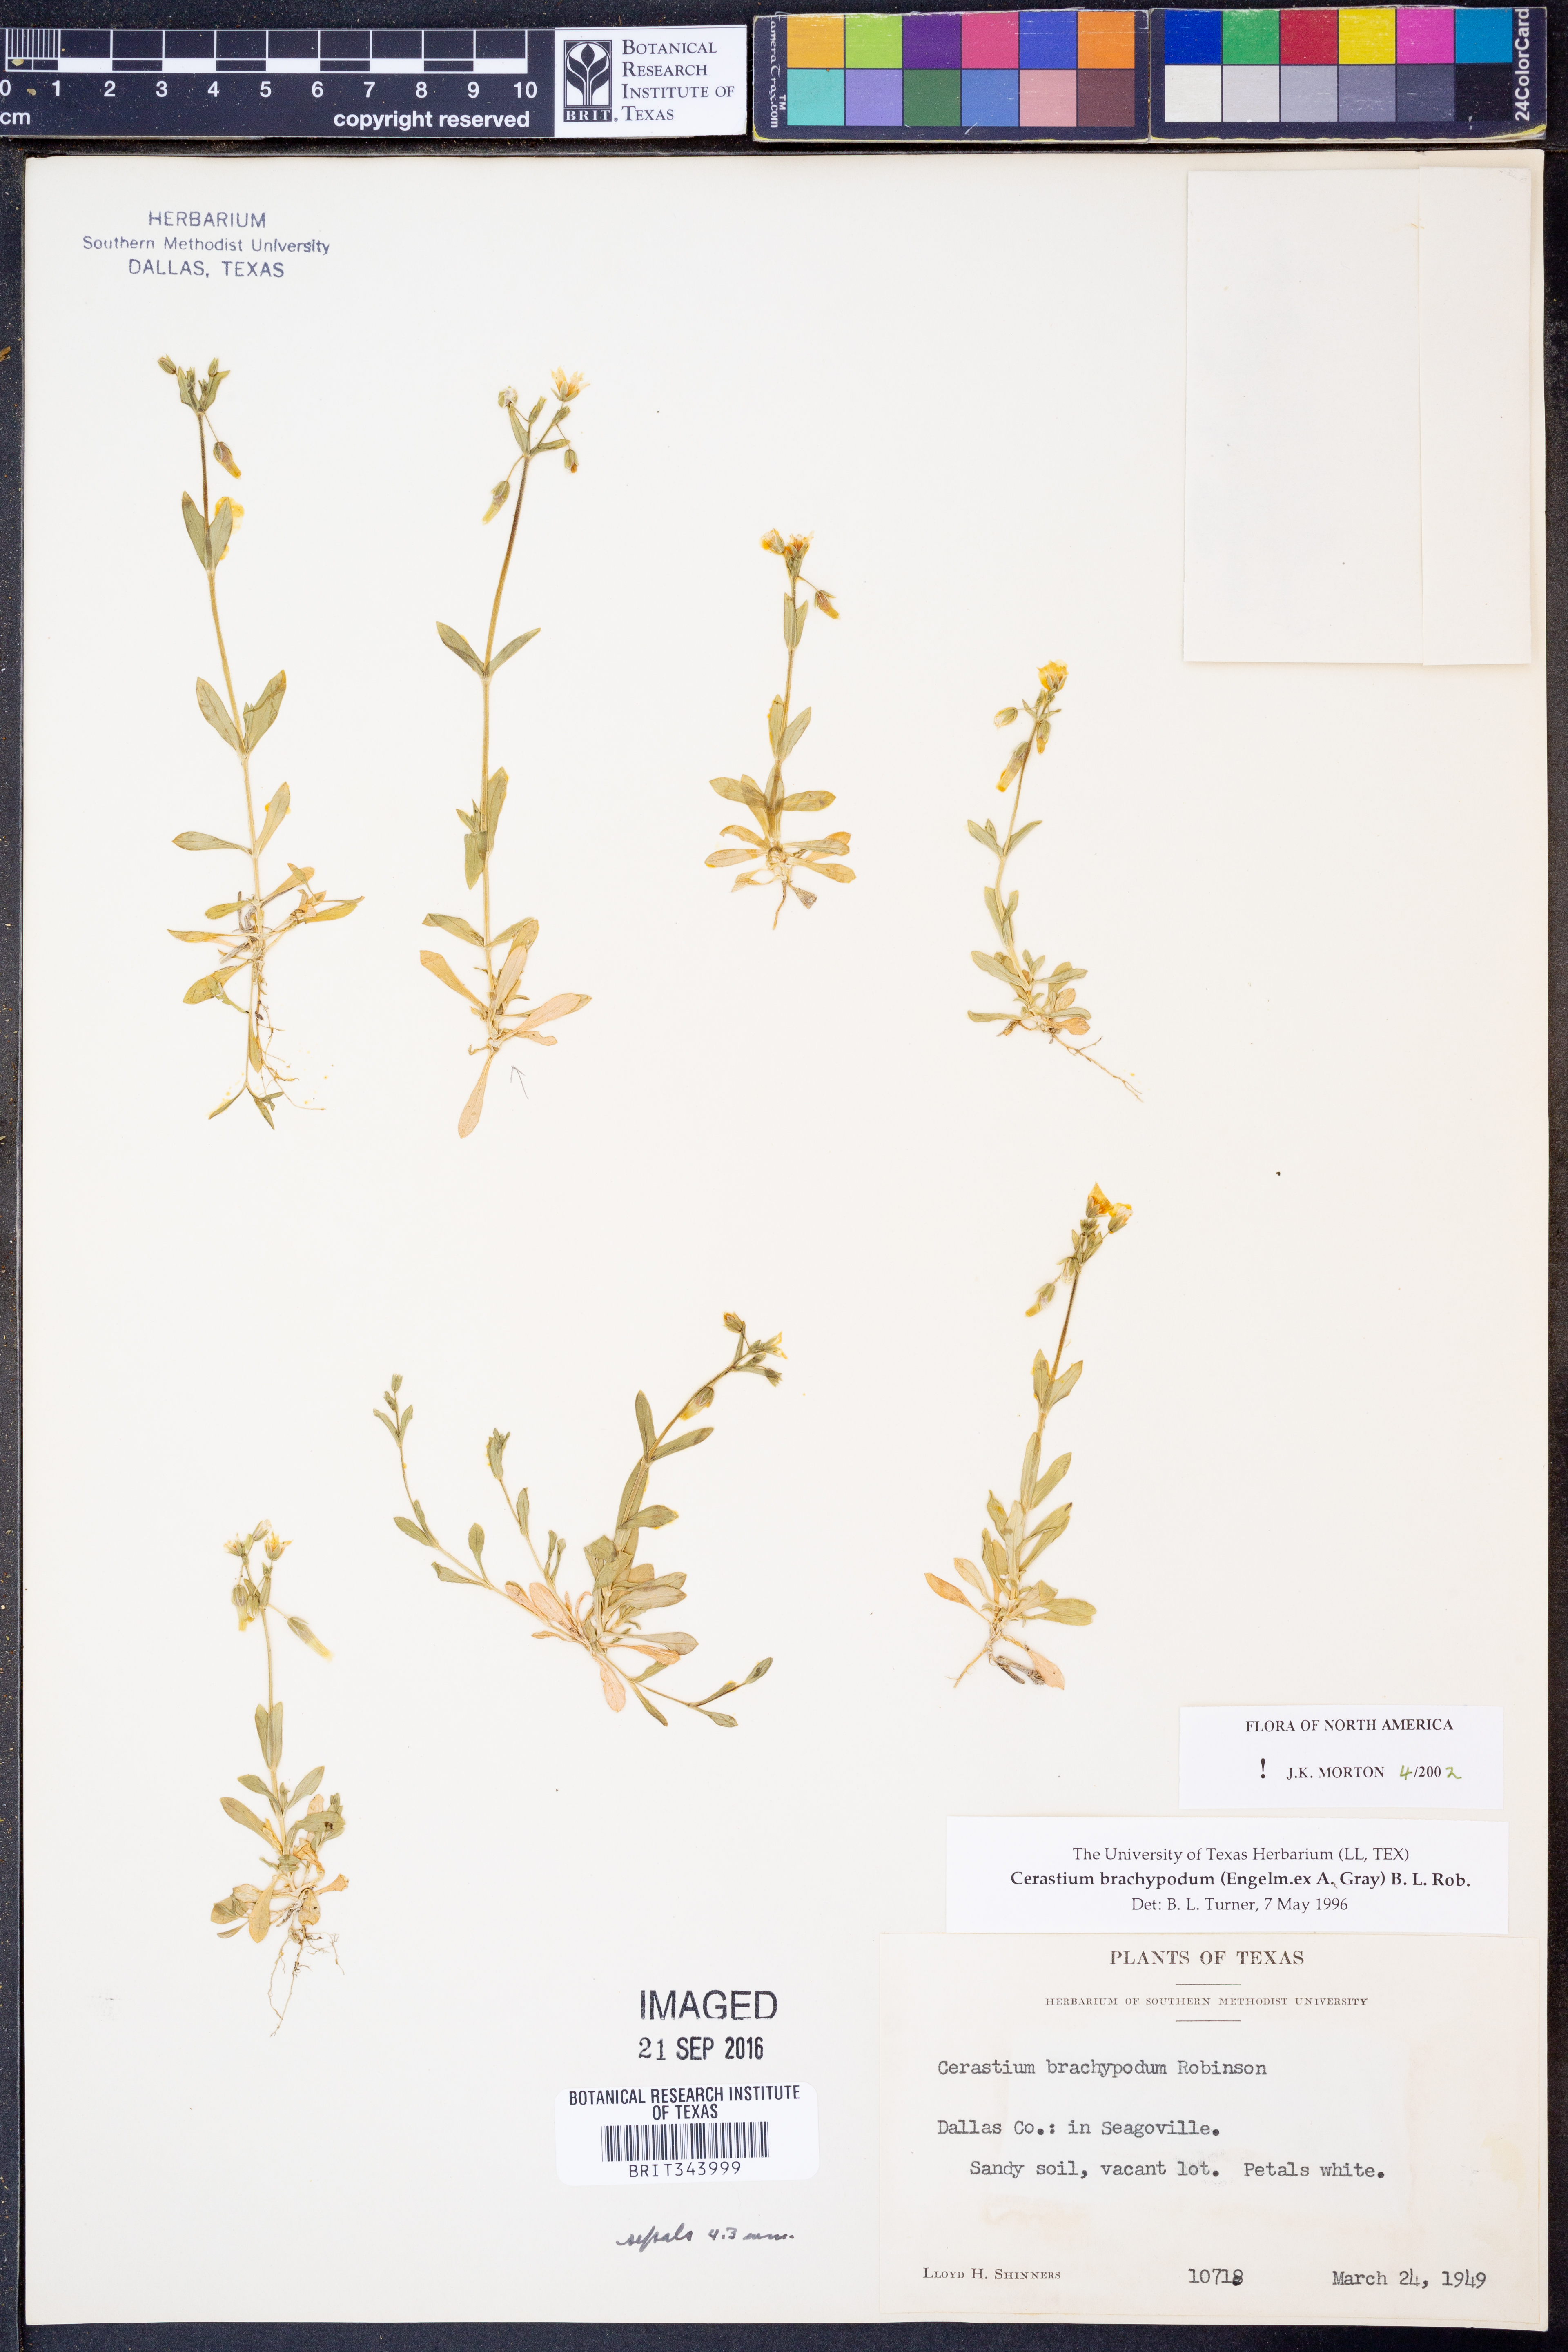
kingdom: Plantae
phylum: Tracheophyta
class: Magnoliopsida
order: Caryophyllales
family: Caryophyllaceae
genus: Cerastium
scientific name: Cerastium brachypodum
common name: Short-pedicelled nodding chickweed
